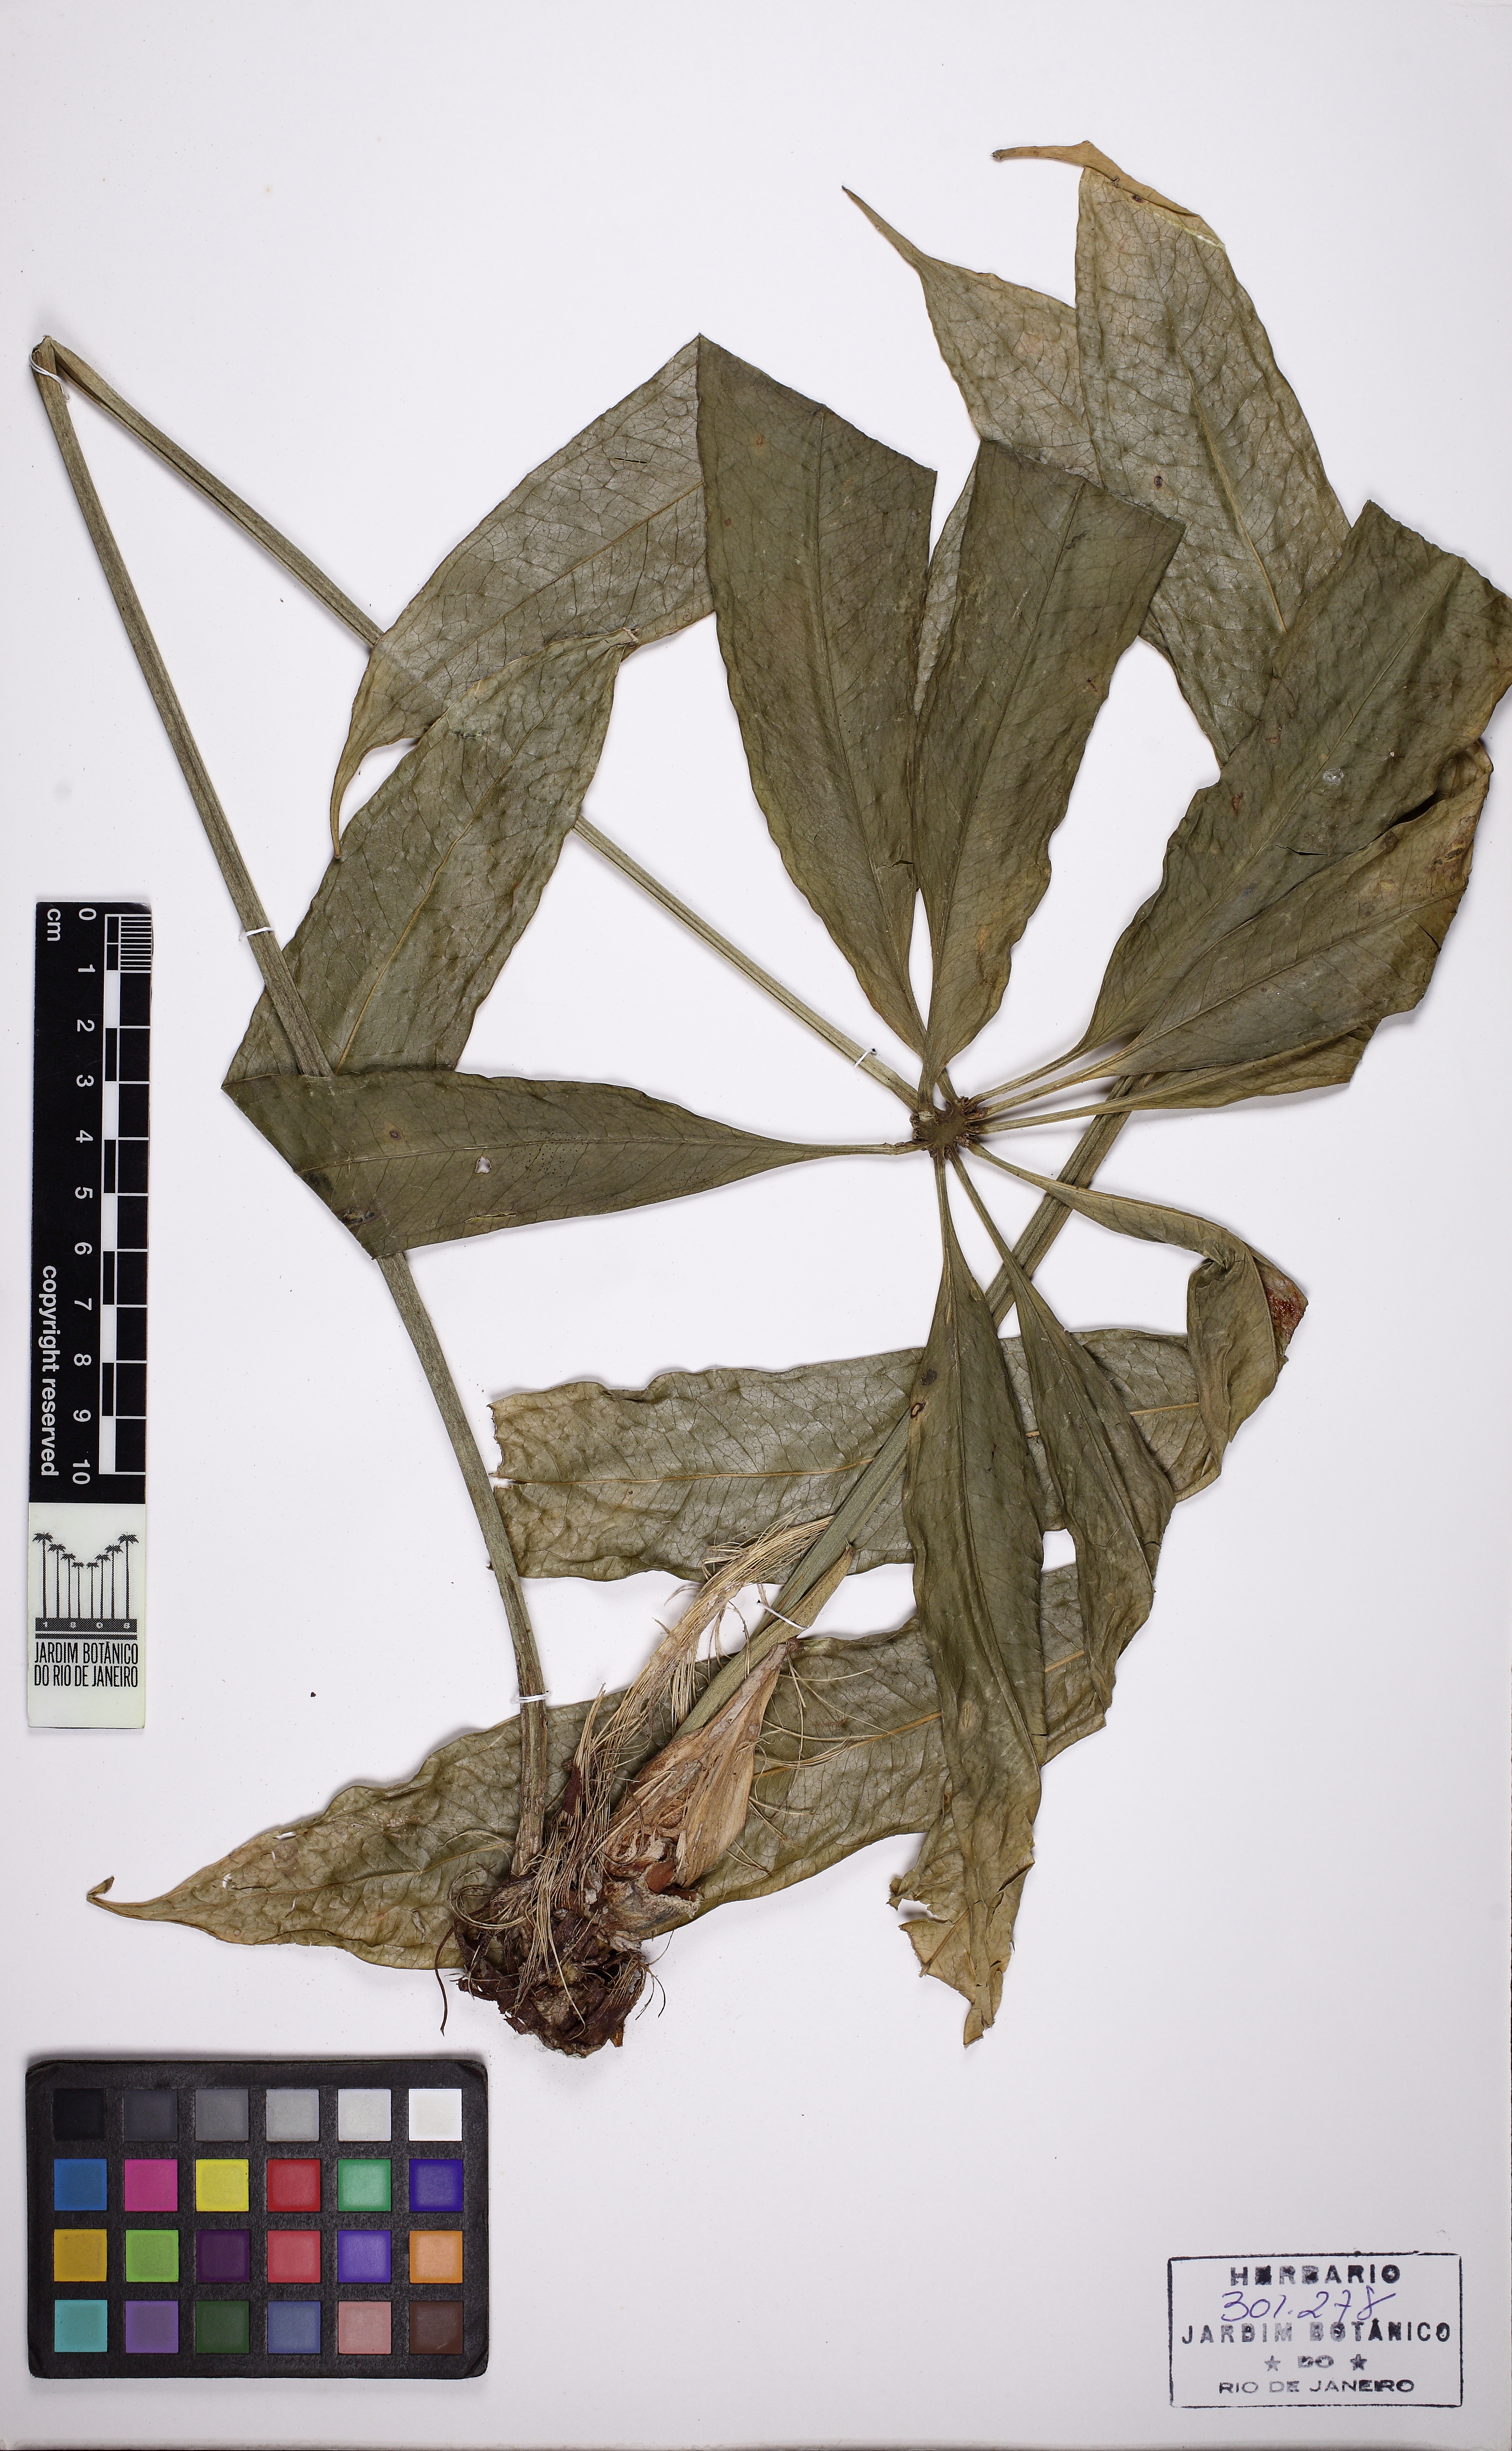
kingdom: Plantae
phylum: Tracheophyta
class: Liliopsida
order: Alismatales
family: Araceae
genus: Anthurium
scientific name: Anthurium pentaphyllum
